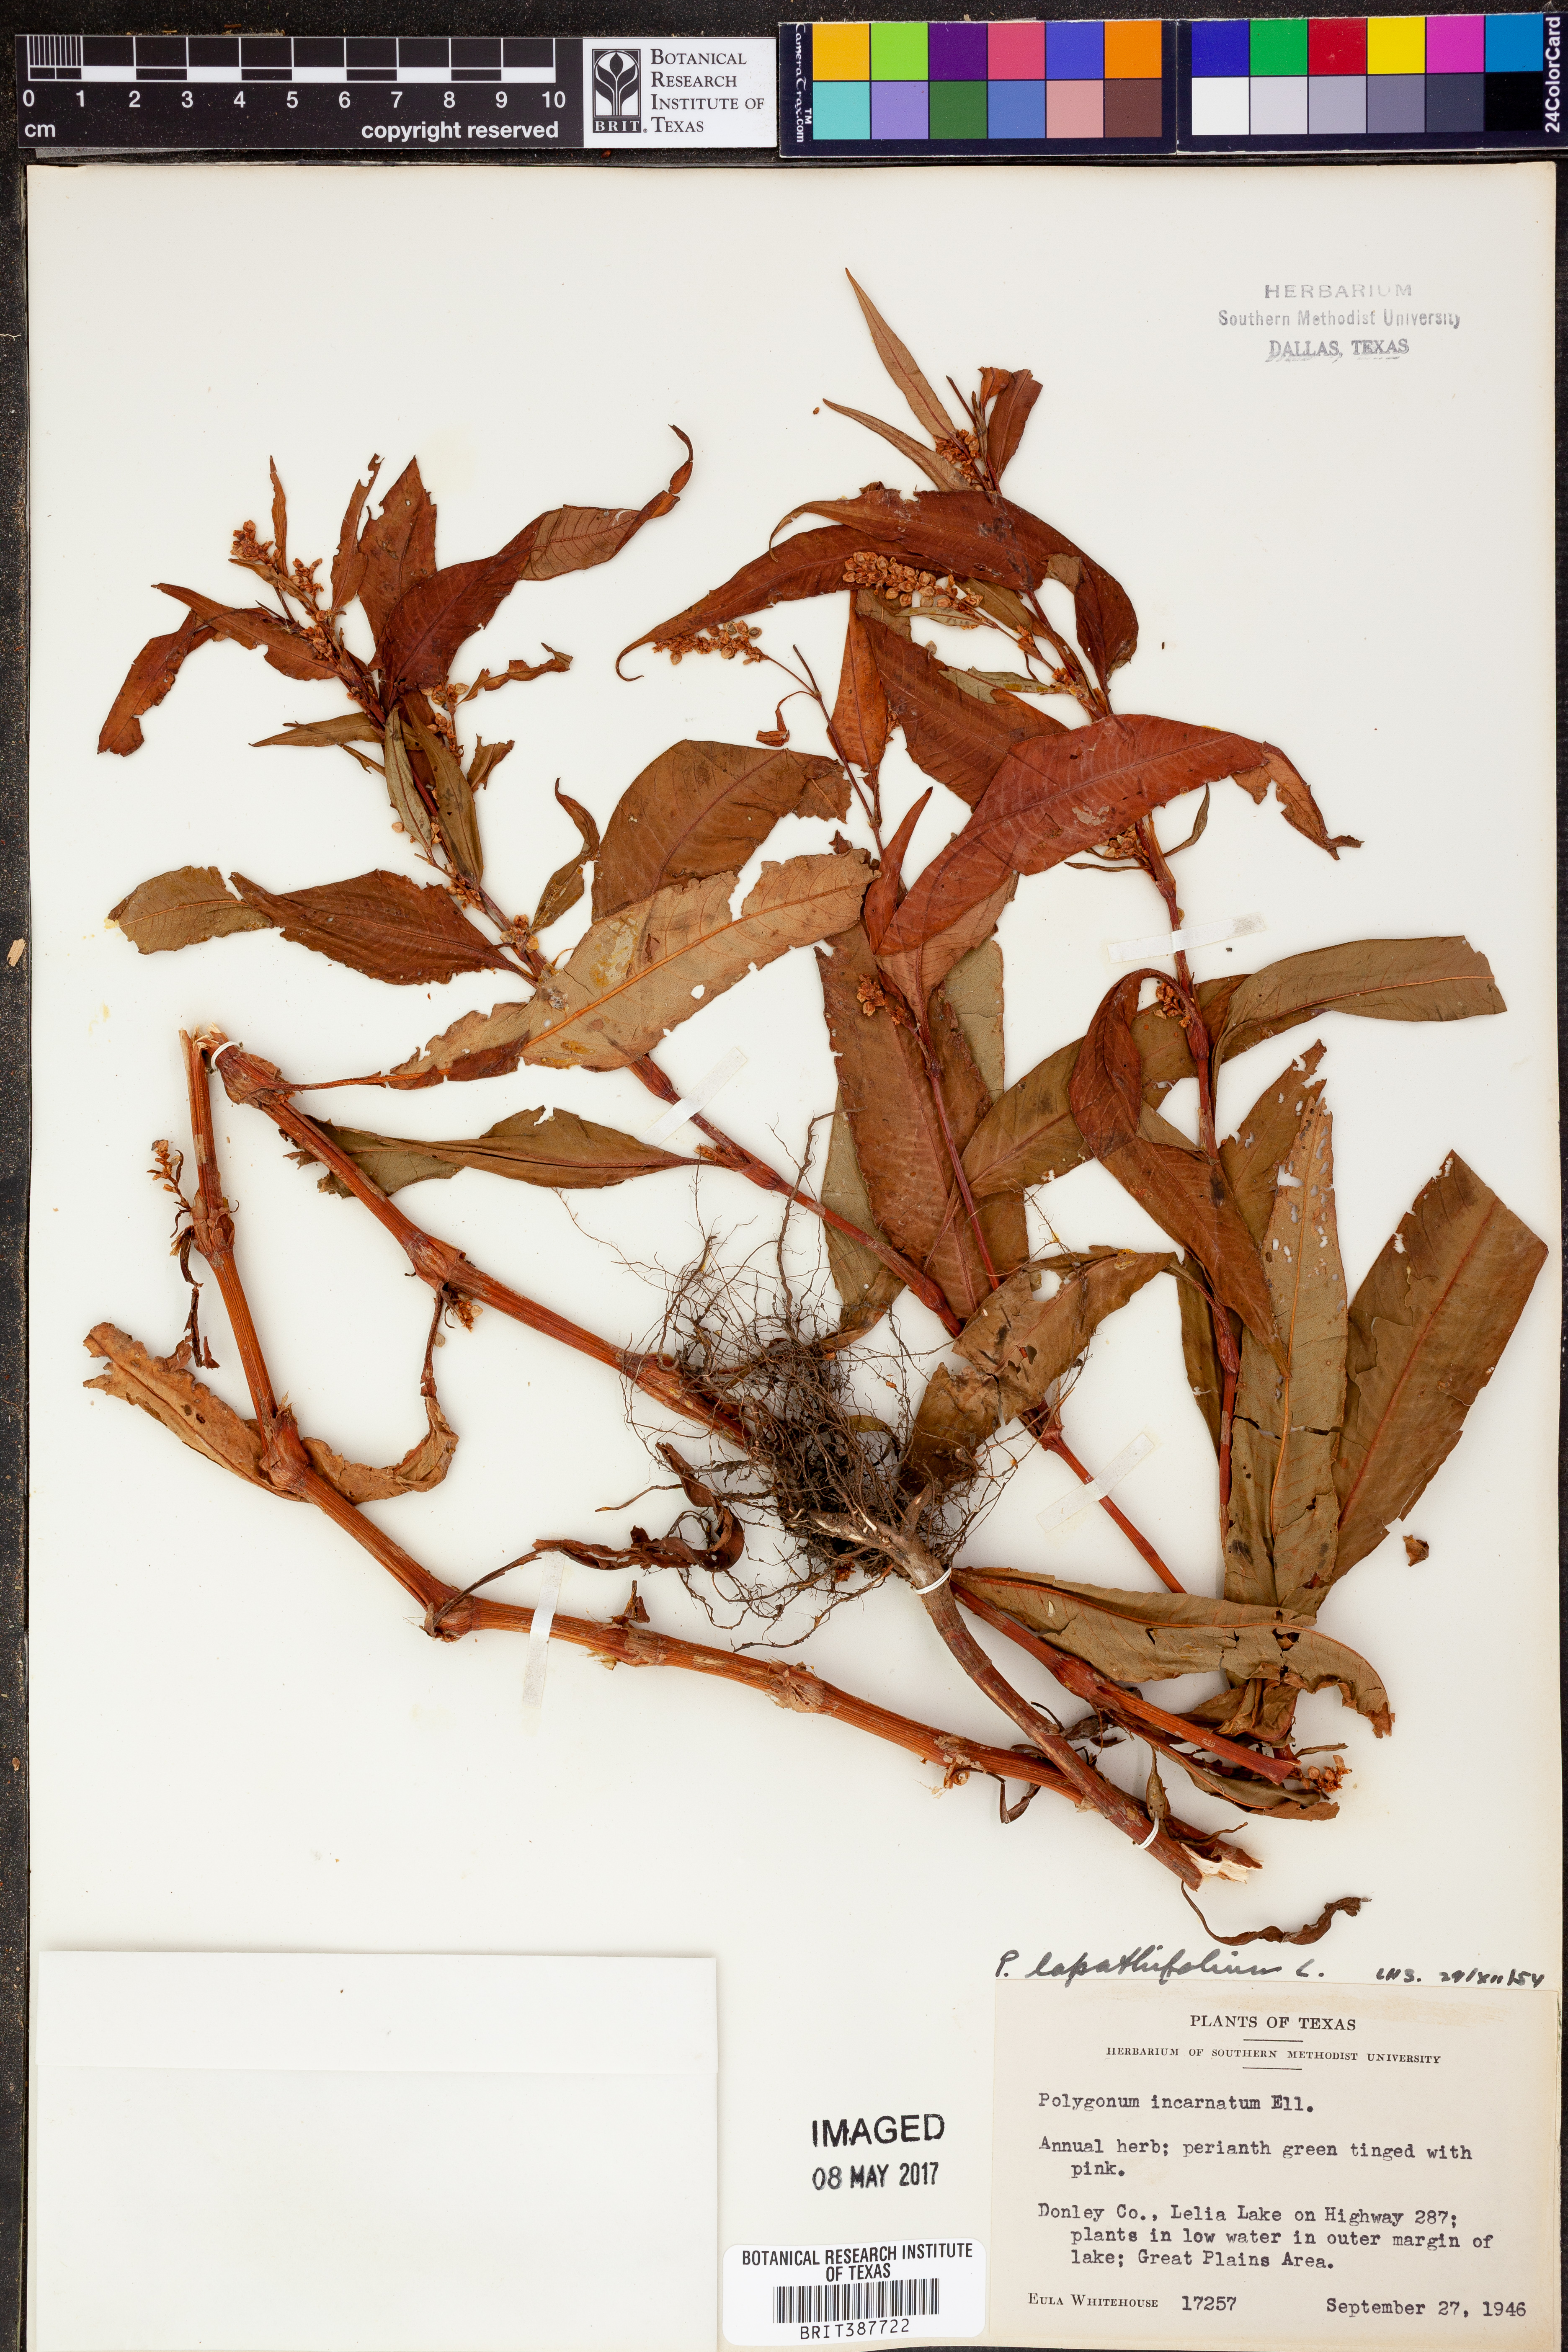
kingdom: Plantae
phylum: Tracheophyta
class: Magnoliopsida
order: Caryophyllales
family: Polygonaceae
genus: Persicaria
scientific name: Persicaria lapathifolia
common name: Curlytop knotweed
